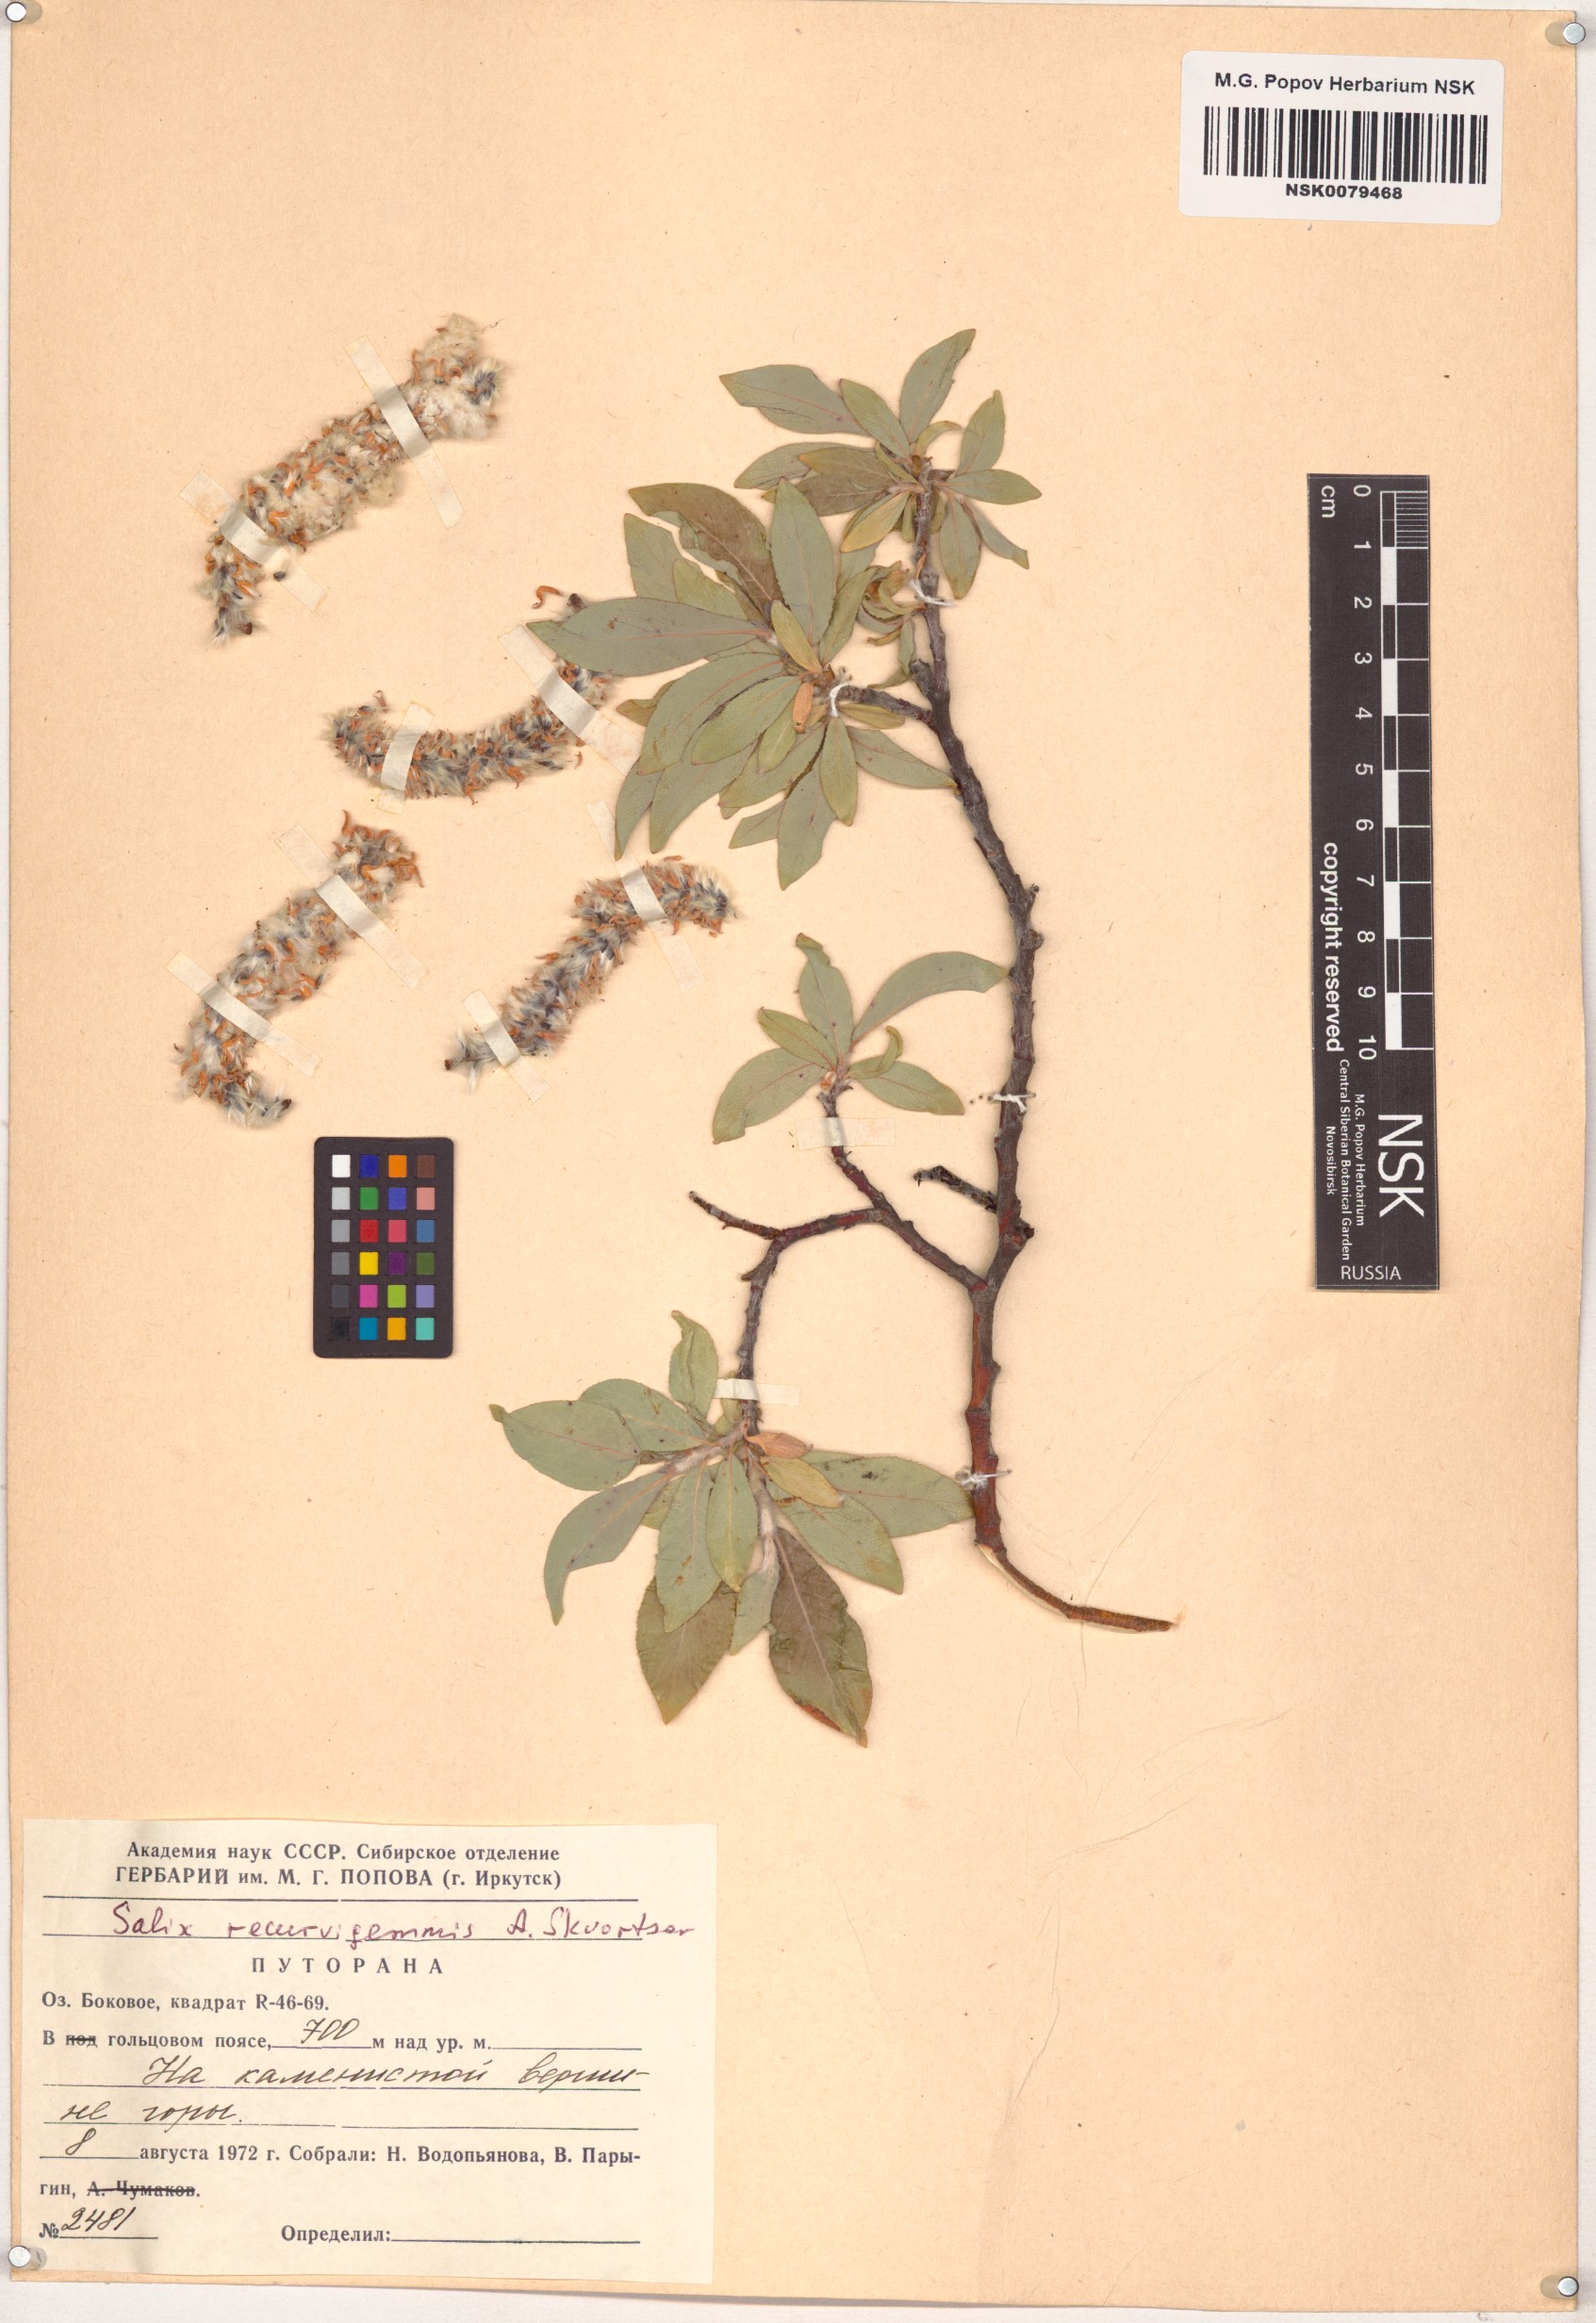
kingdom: Plantae
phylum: Tracheophyta
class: Magnoliopsida
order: Malpighiales
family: Salicaceae
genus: Salix
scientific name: Salix recurvigemmata
